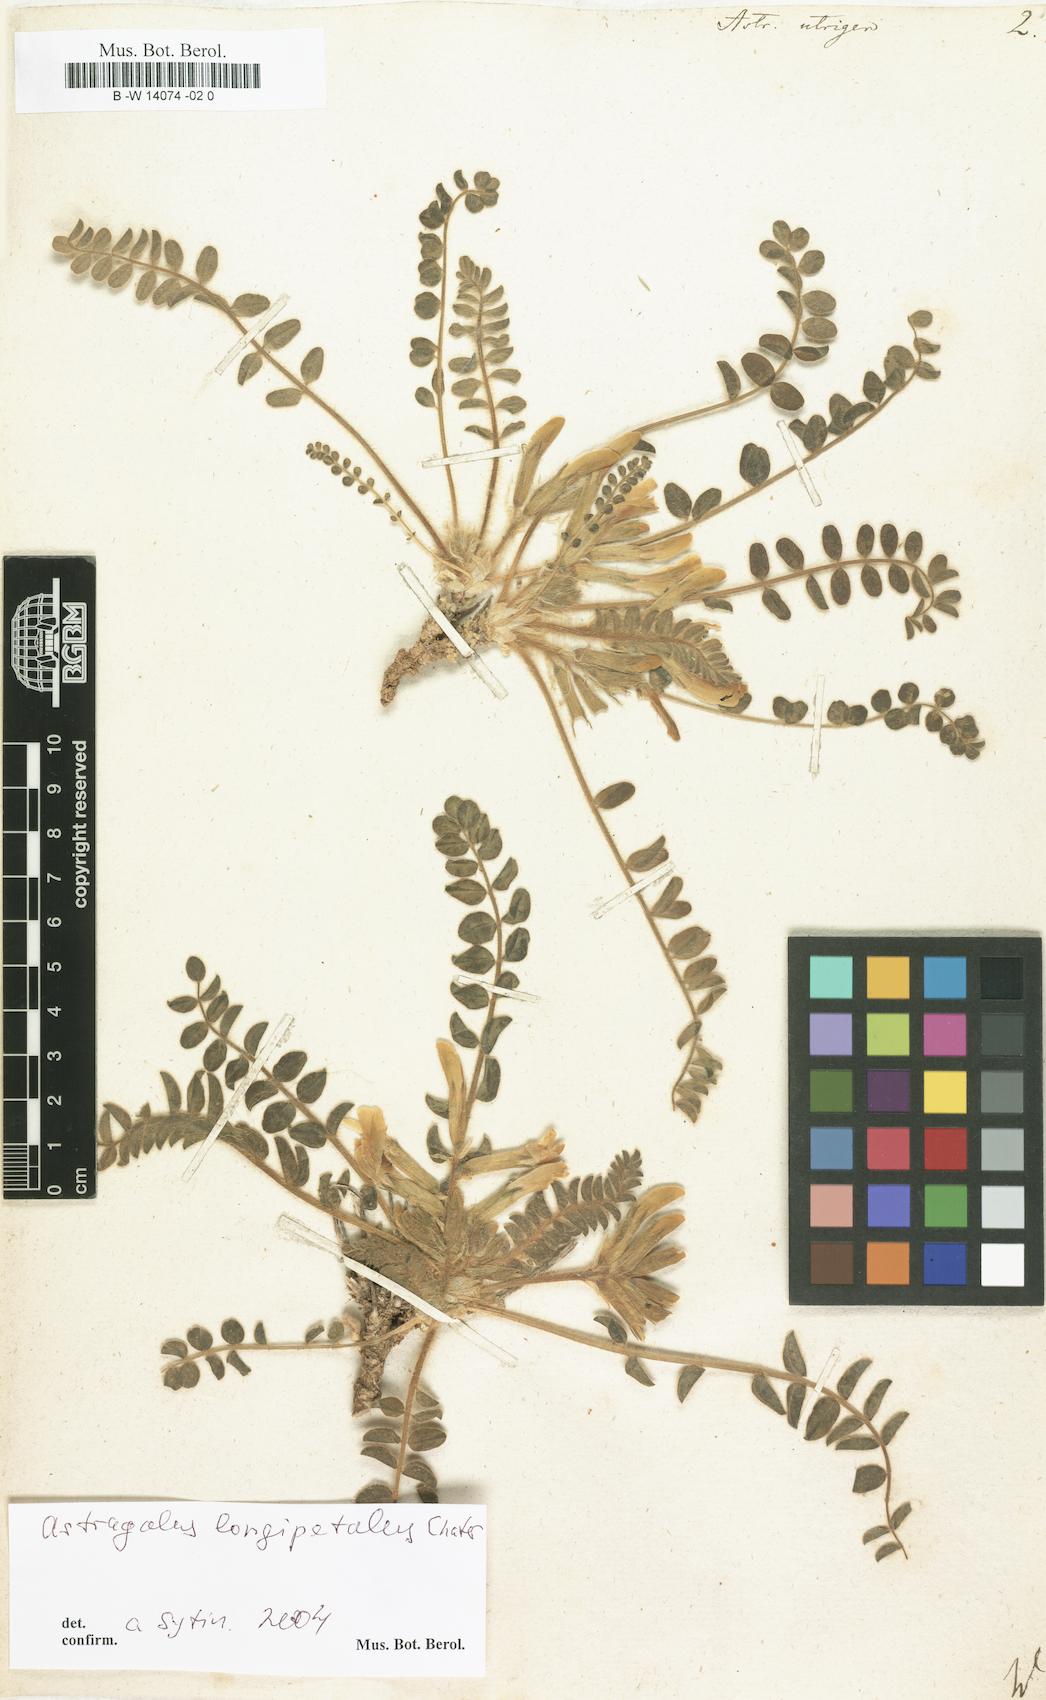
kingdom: Plantae
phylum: Tracheophyta
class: Magnoliopsida
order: Fabales
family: Fabaceae
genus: Astragalus
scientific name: Astragalus utriger
